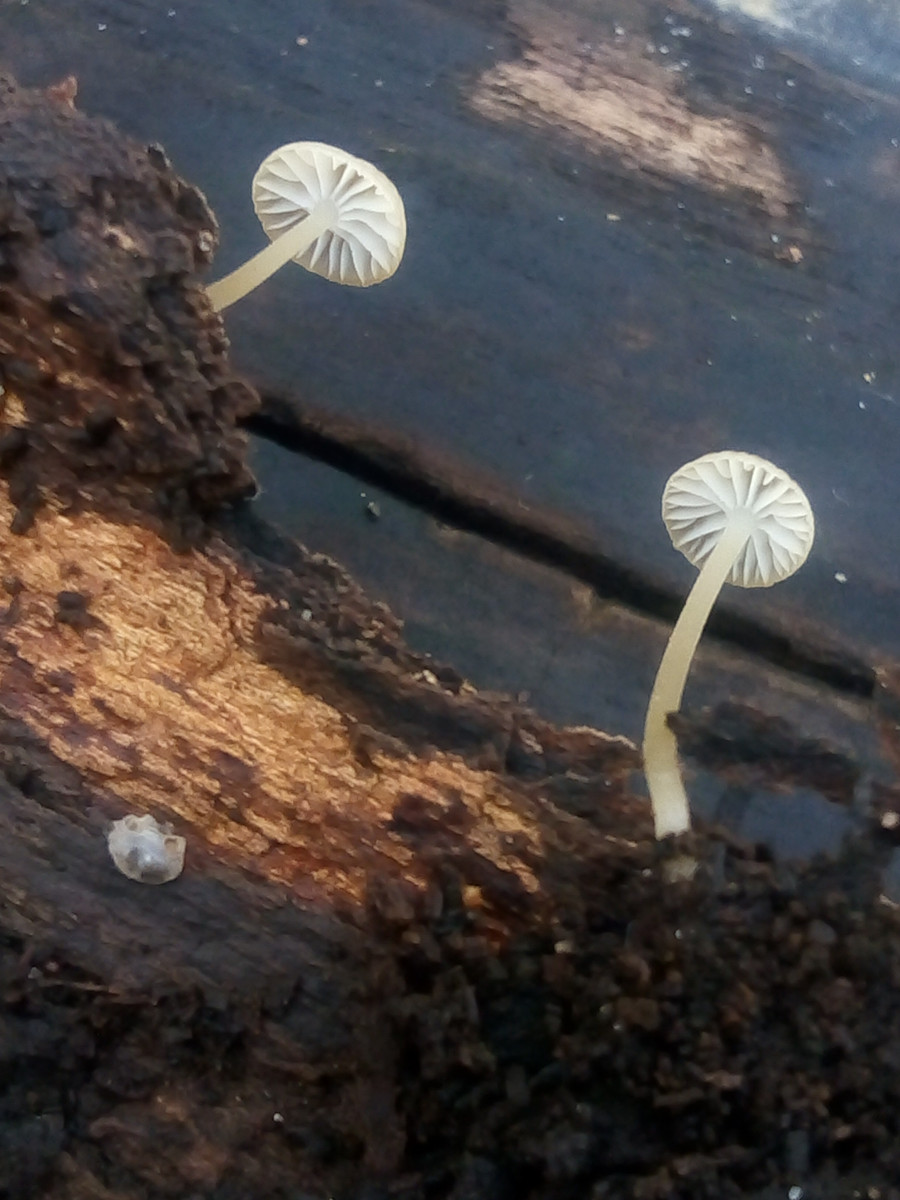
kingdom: Fungi
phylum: Basidiomycota
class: Agaricomycetes
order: Agaricales
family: Porotheleaceae
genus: Phloeomana
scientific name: Phloeomana speirea
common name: kvist-huesvamp
